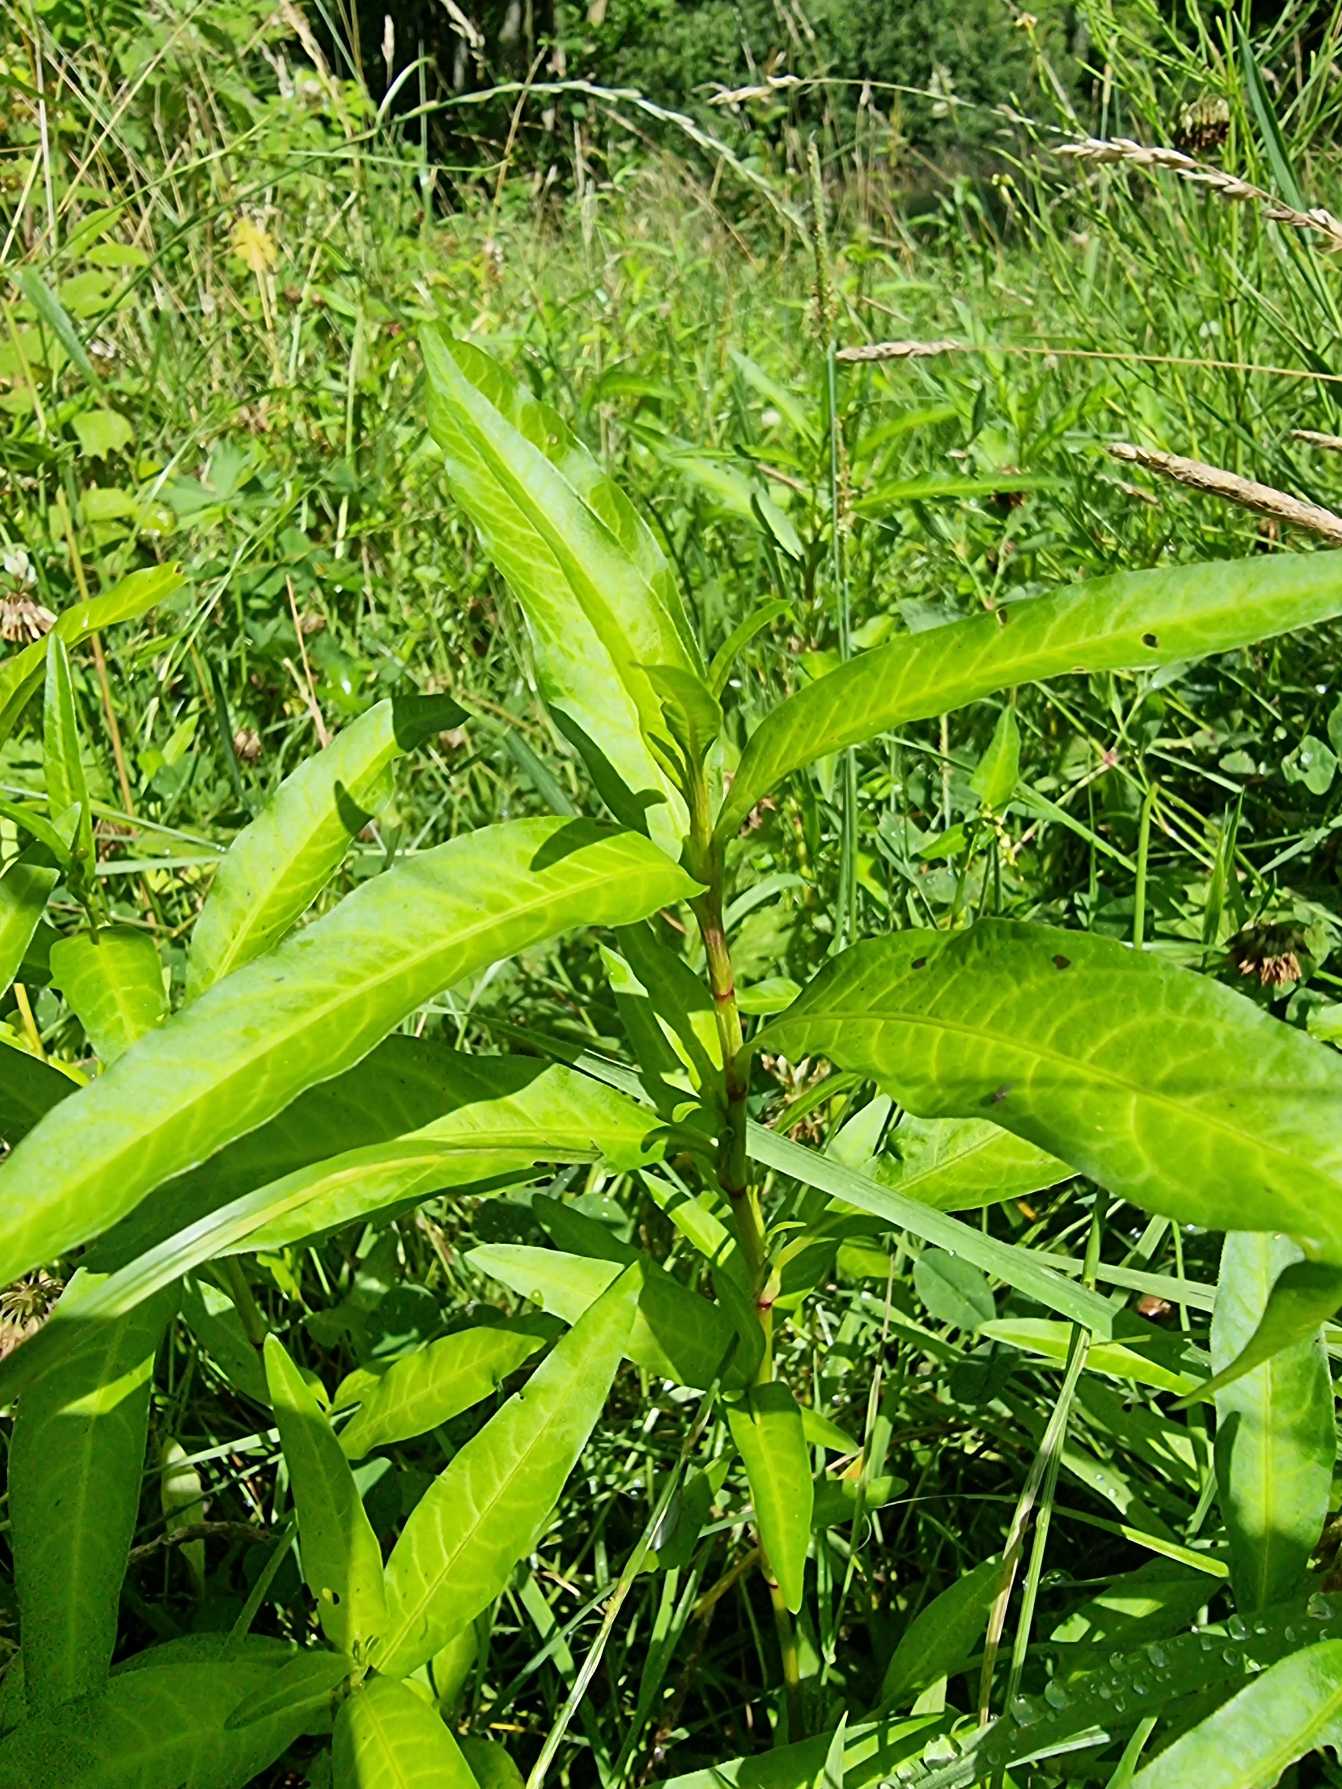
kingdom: Plantae
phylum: Tracheophyta
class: Magnoliopsida
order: Caryophyllales
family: Polygonaceae
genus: Persicaria
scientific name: Persicaria
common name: Pileurt (Persicaria-slægten)
